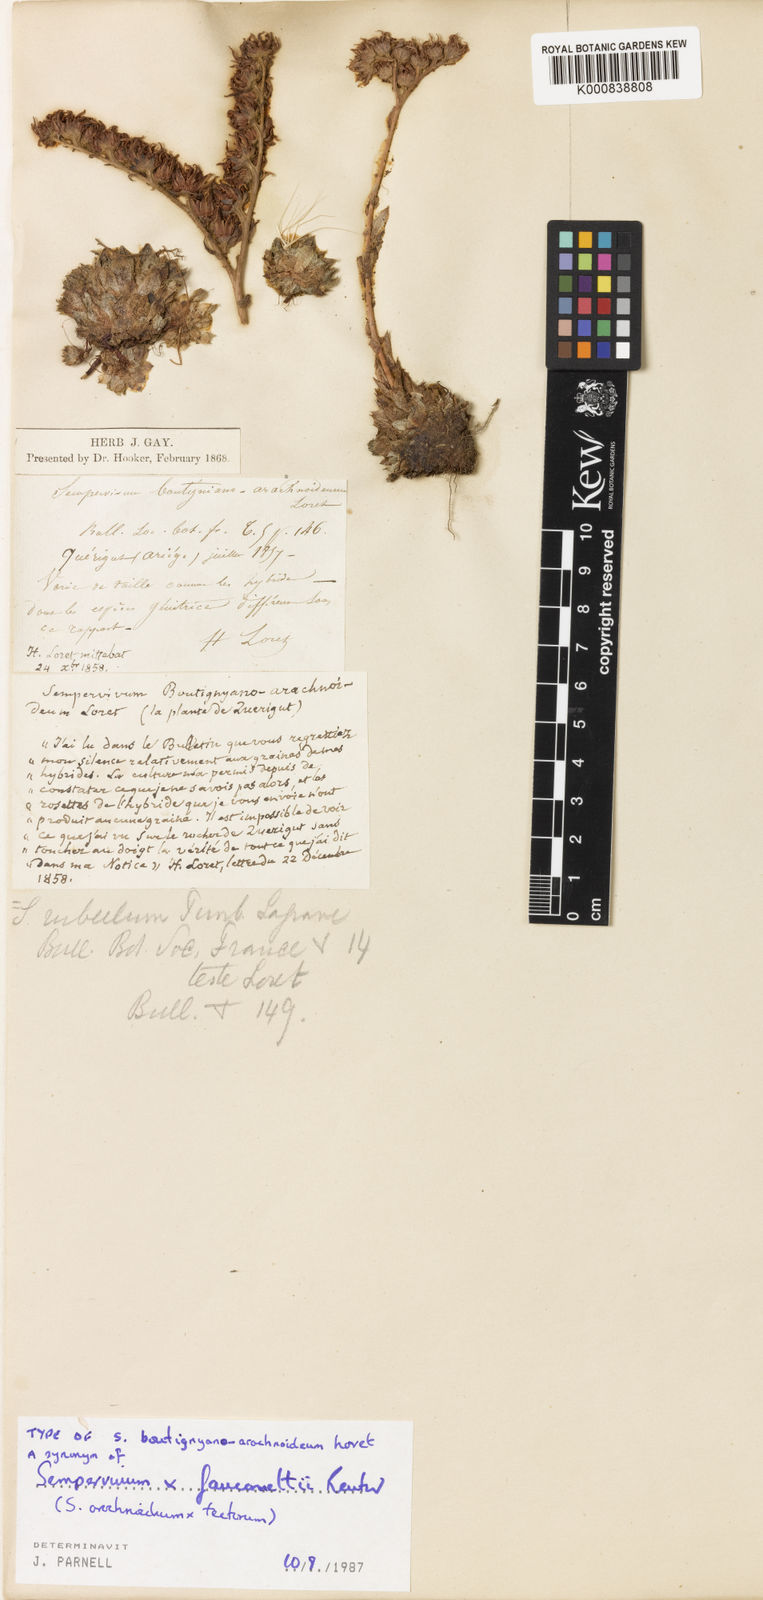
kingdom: Plantae
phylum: Tracheophyta
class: Magnoliopsida
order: Saxifragales
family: Crassulaceae
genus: Sempervivum
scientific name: Sempervivum
